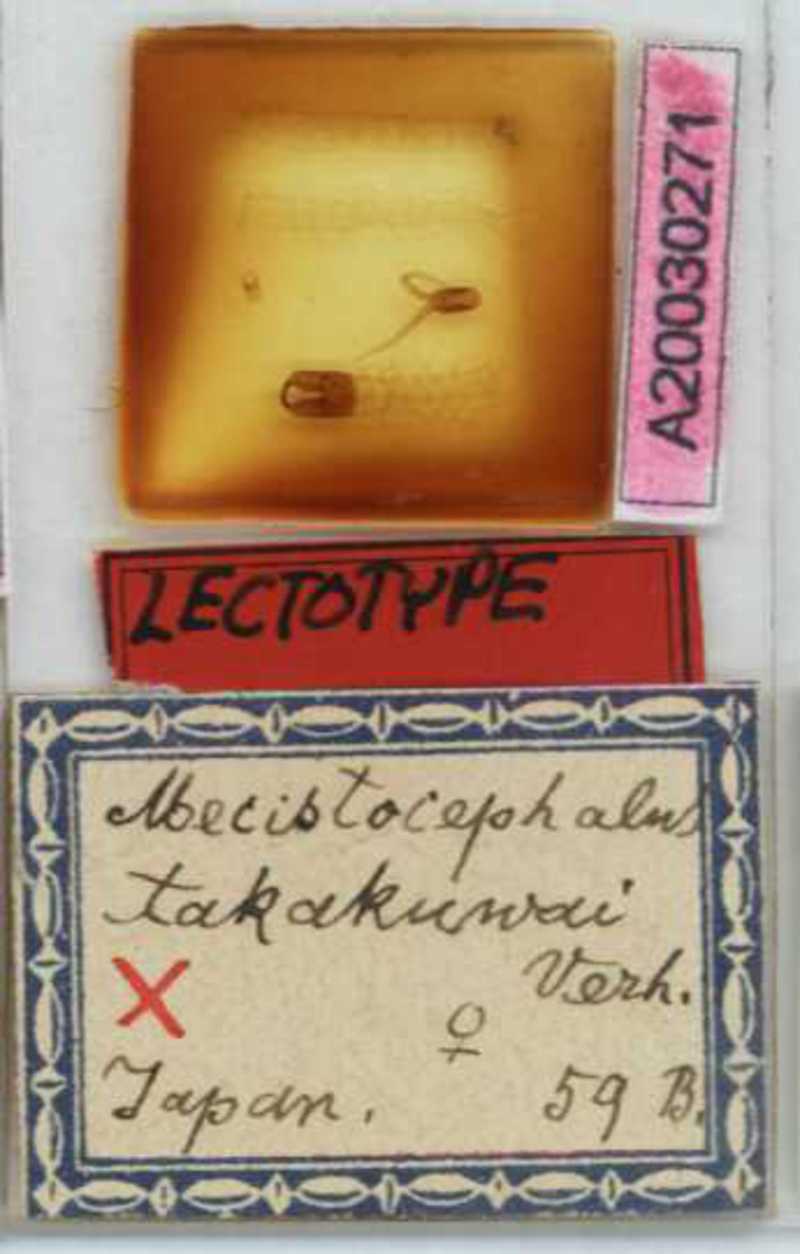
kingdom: Animalia
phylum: Arthropoda
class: Chilopoda
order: Geophilomorpha
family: Mecistocephalidae
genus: Mecistocephalus
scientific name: Mecistocephalus takakuwai
